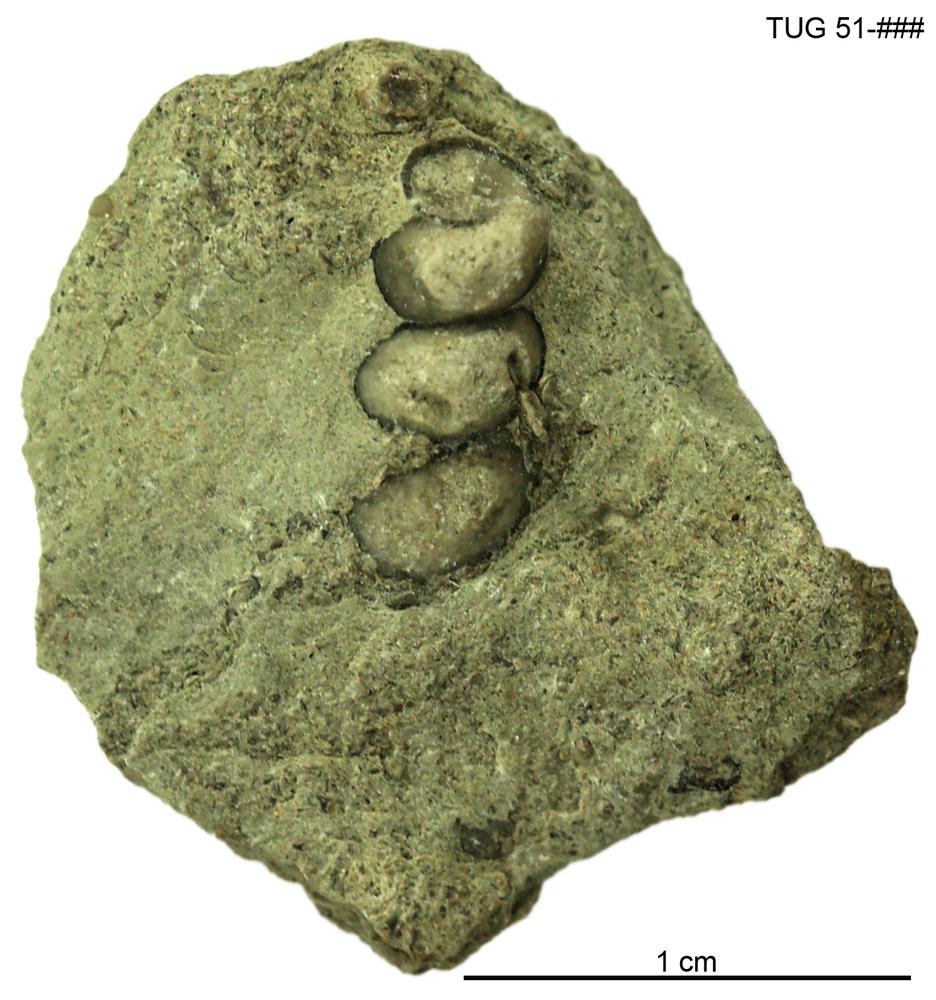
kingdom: Animalia
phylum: Mollusca
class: Gastropoda
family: Loxonematidae
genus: Loxonema
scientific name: Loxonema
